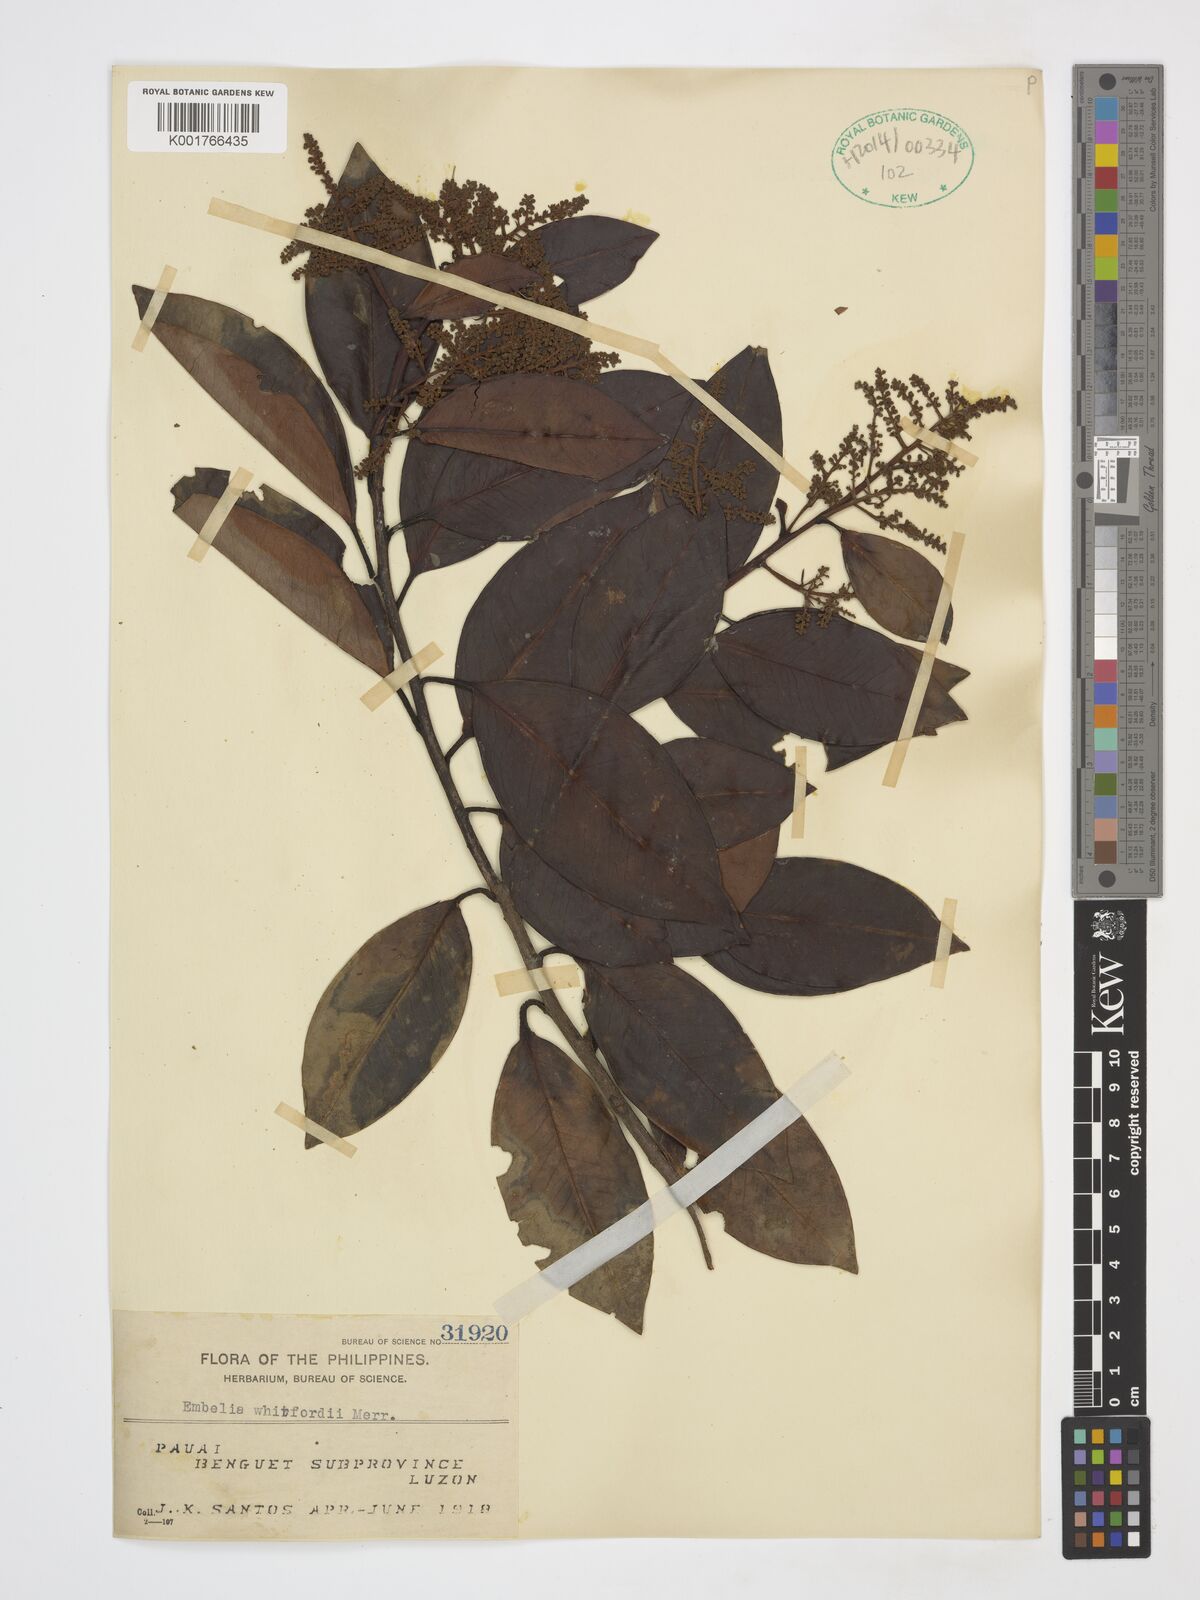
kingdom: Plantae
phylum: Tracheophyta
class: Magnoliopsida
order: Ericales
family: Primulaceae
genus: Embelia
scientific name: Embelia whitfordii
